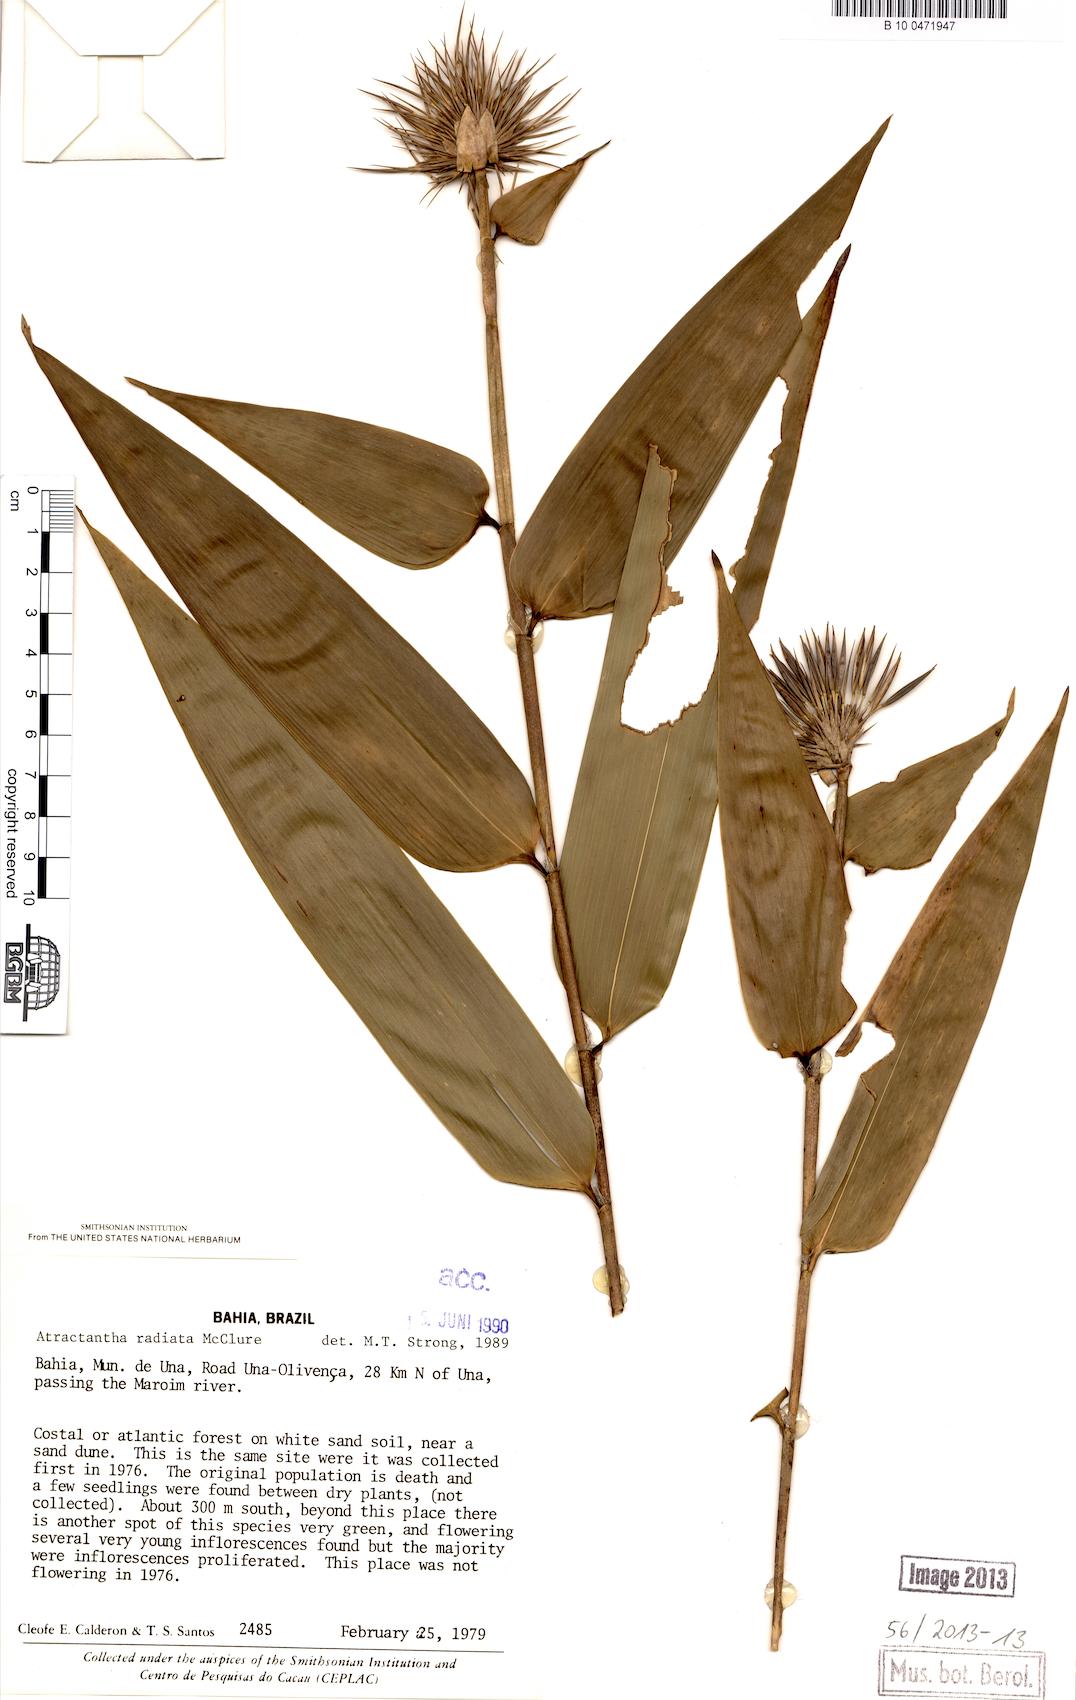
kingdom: Plantae
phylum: Tracheophyta
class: Liliopsida
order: Poales
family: Poaceae
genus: Atractantha
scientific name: Atractantha radiata
